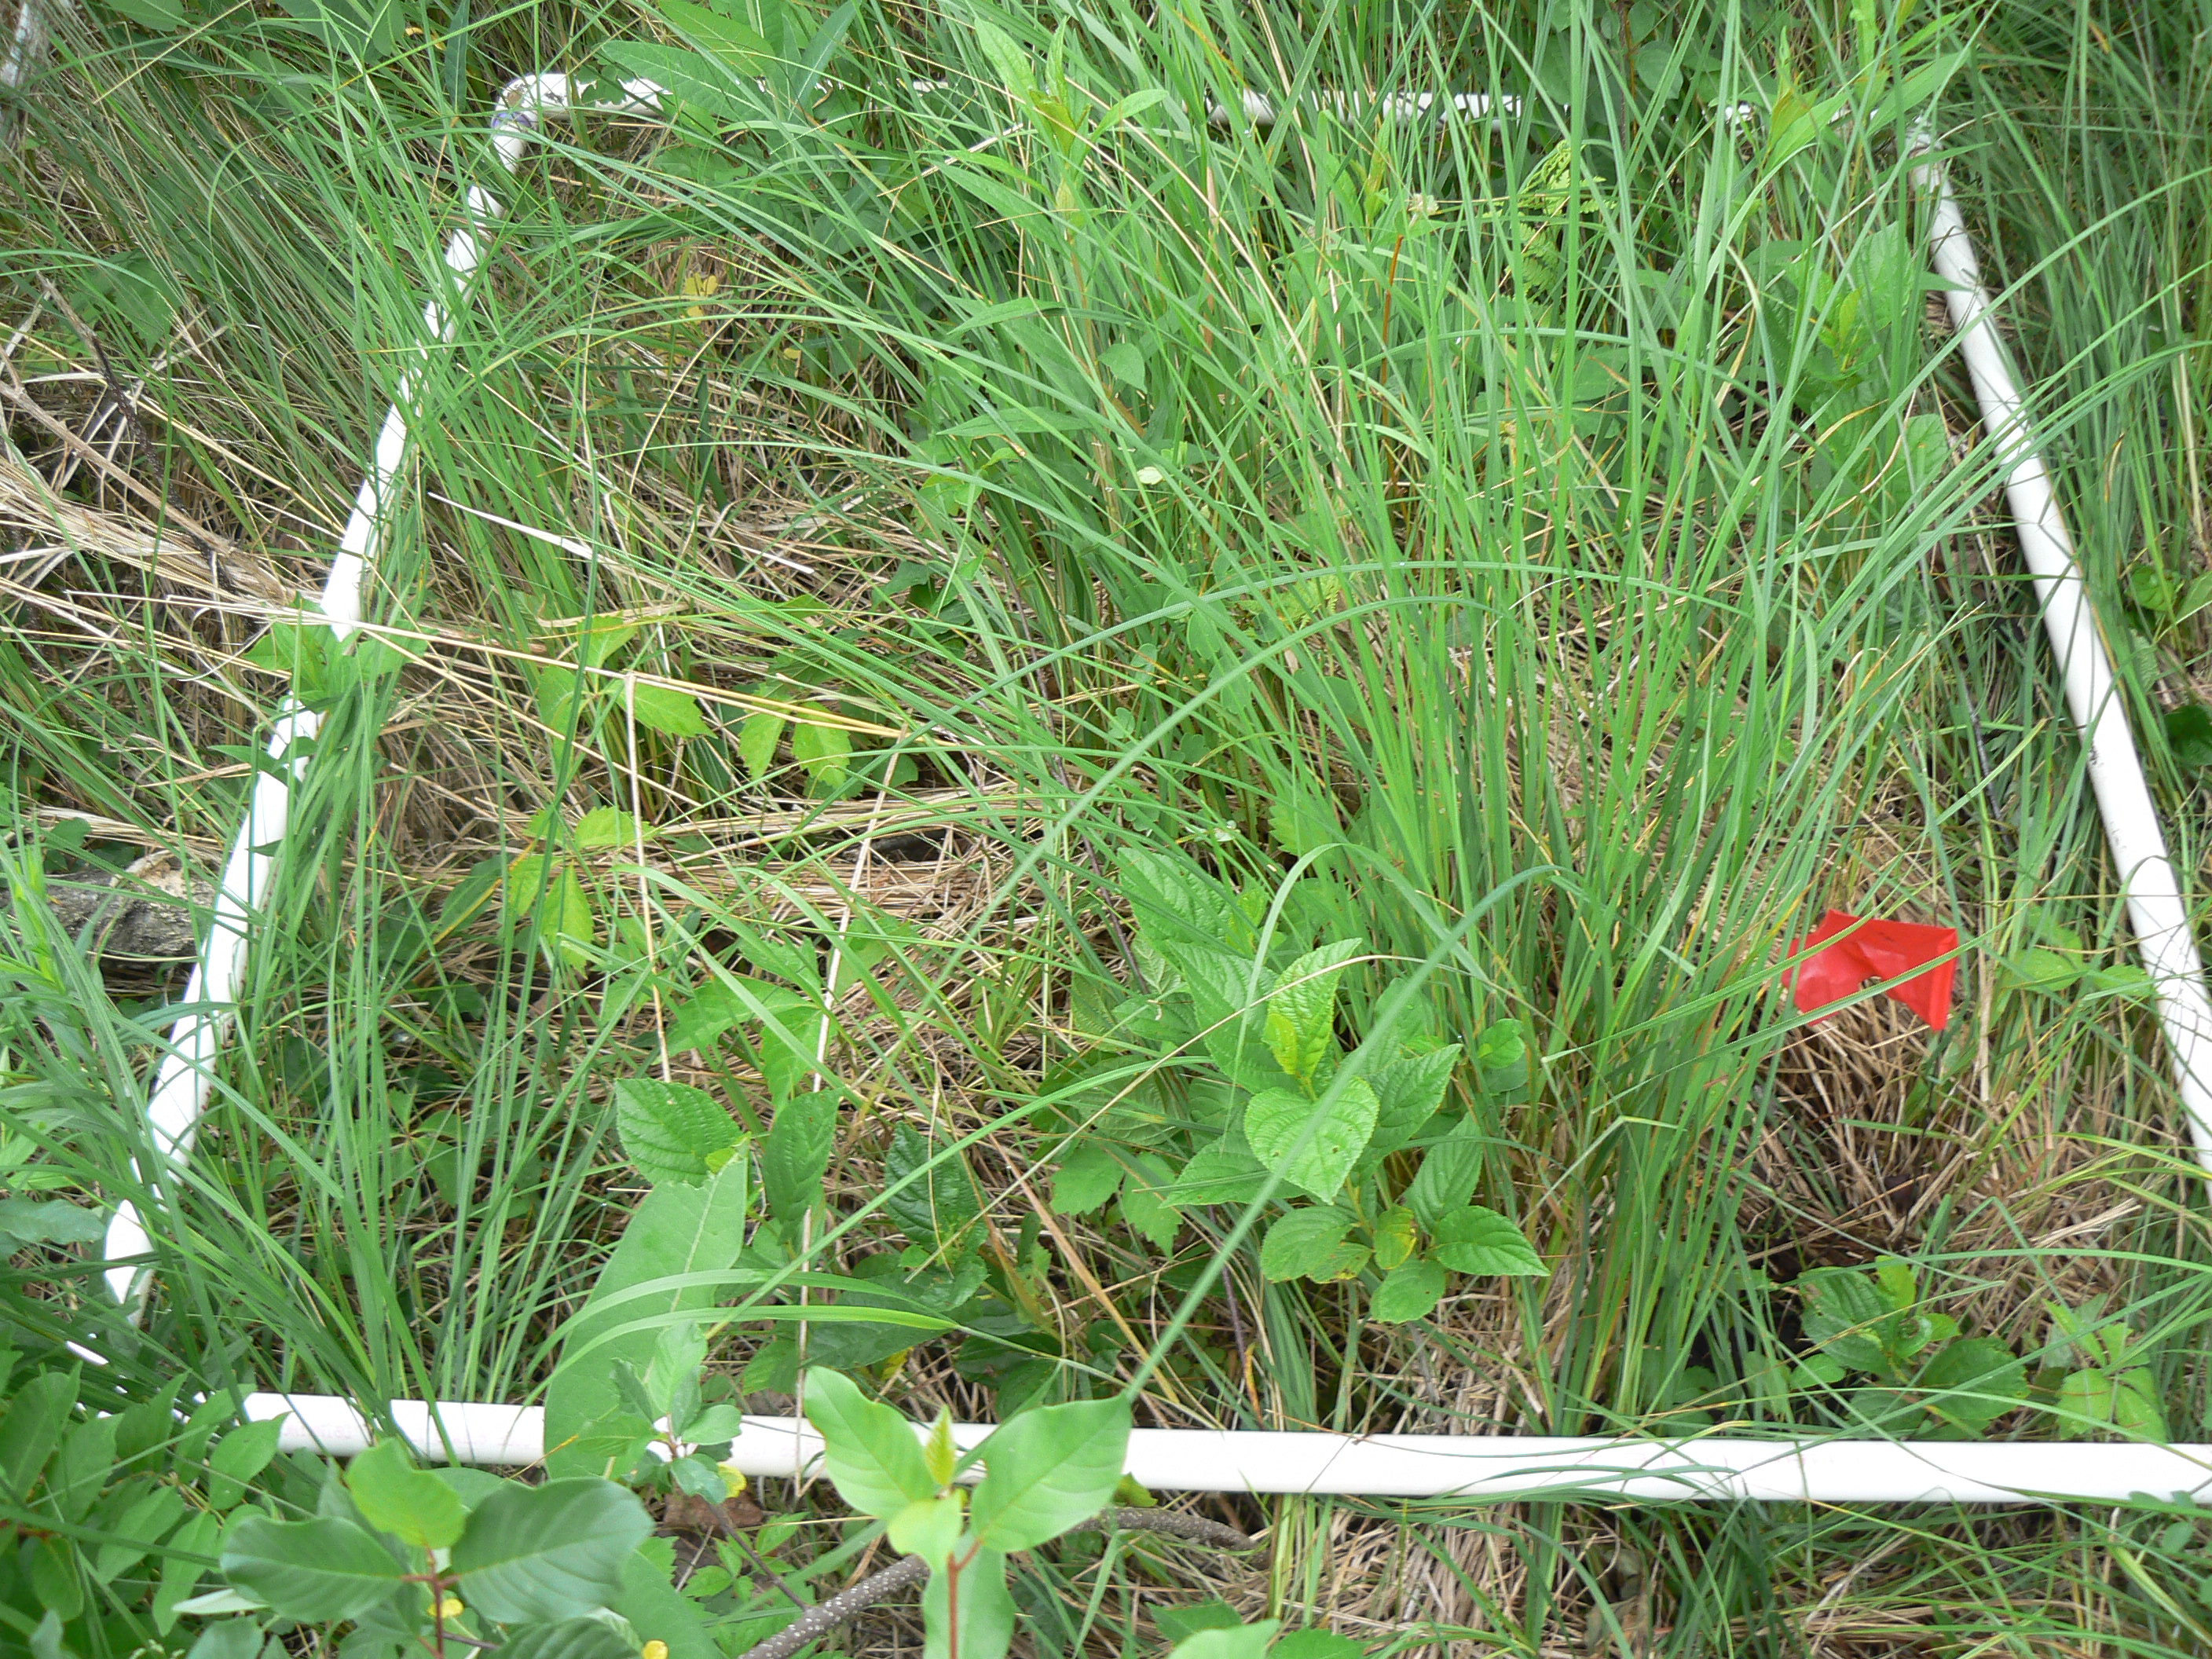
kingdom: Plantae
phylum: Tracheophyta
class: Magnoliopsida
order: Rosales
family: Rhamnaceae
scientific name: Rhamnaceae
